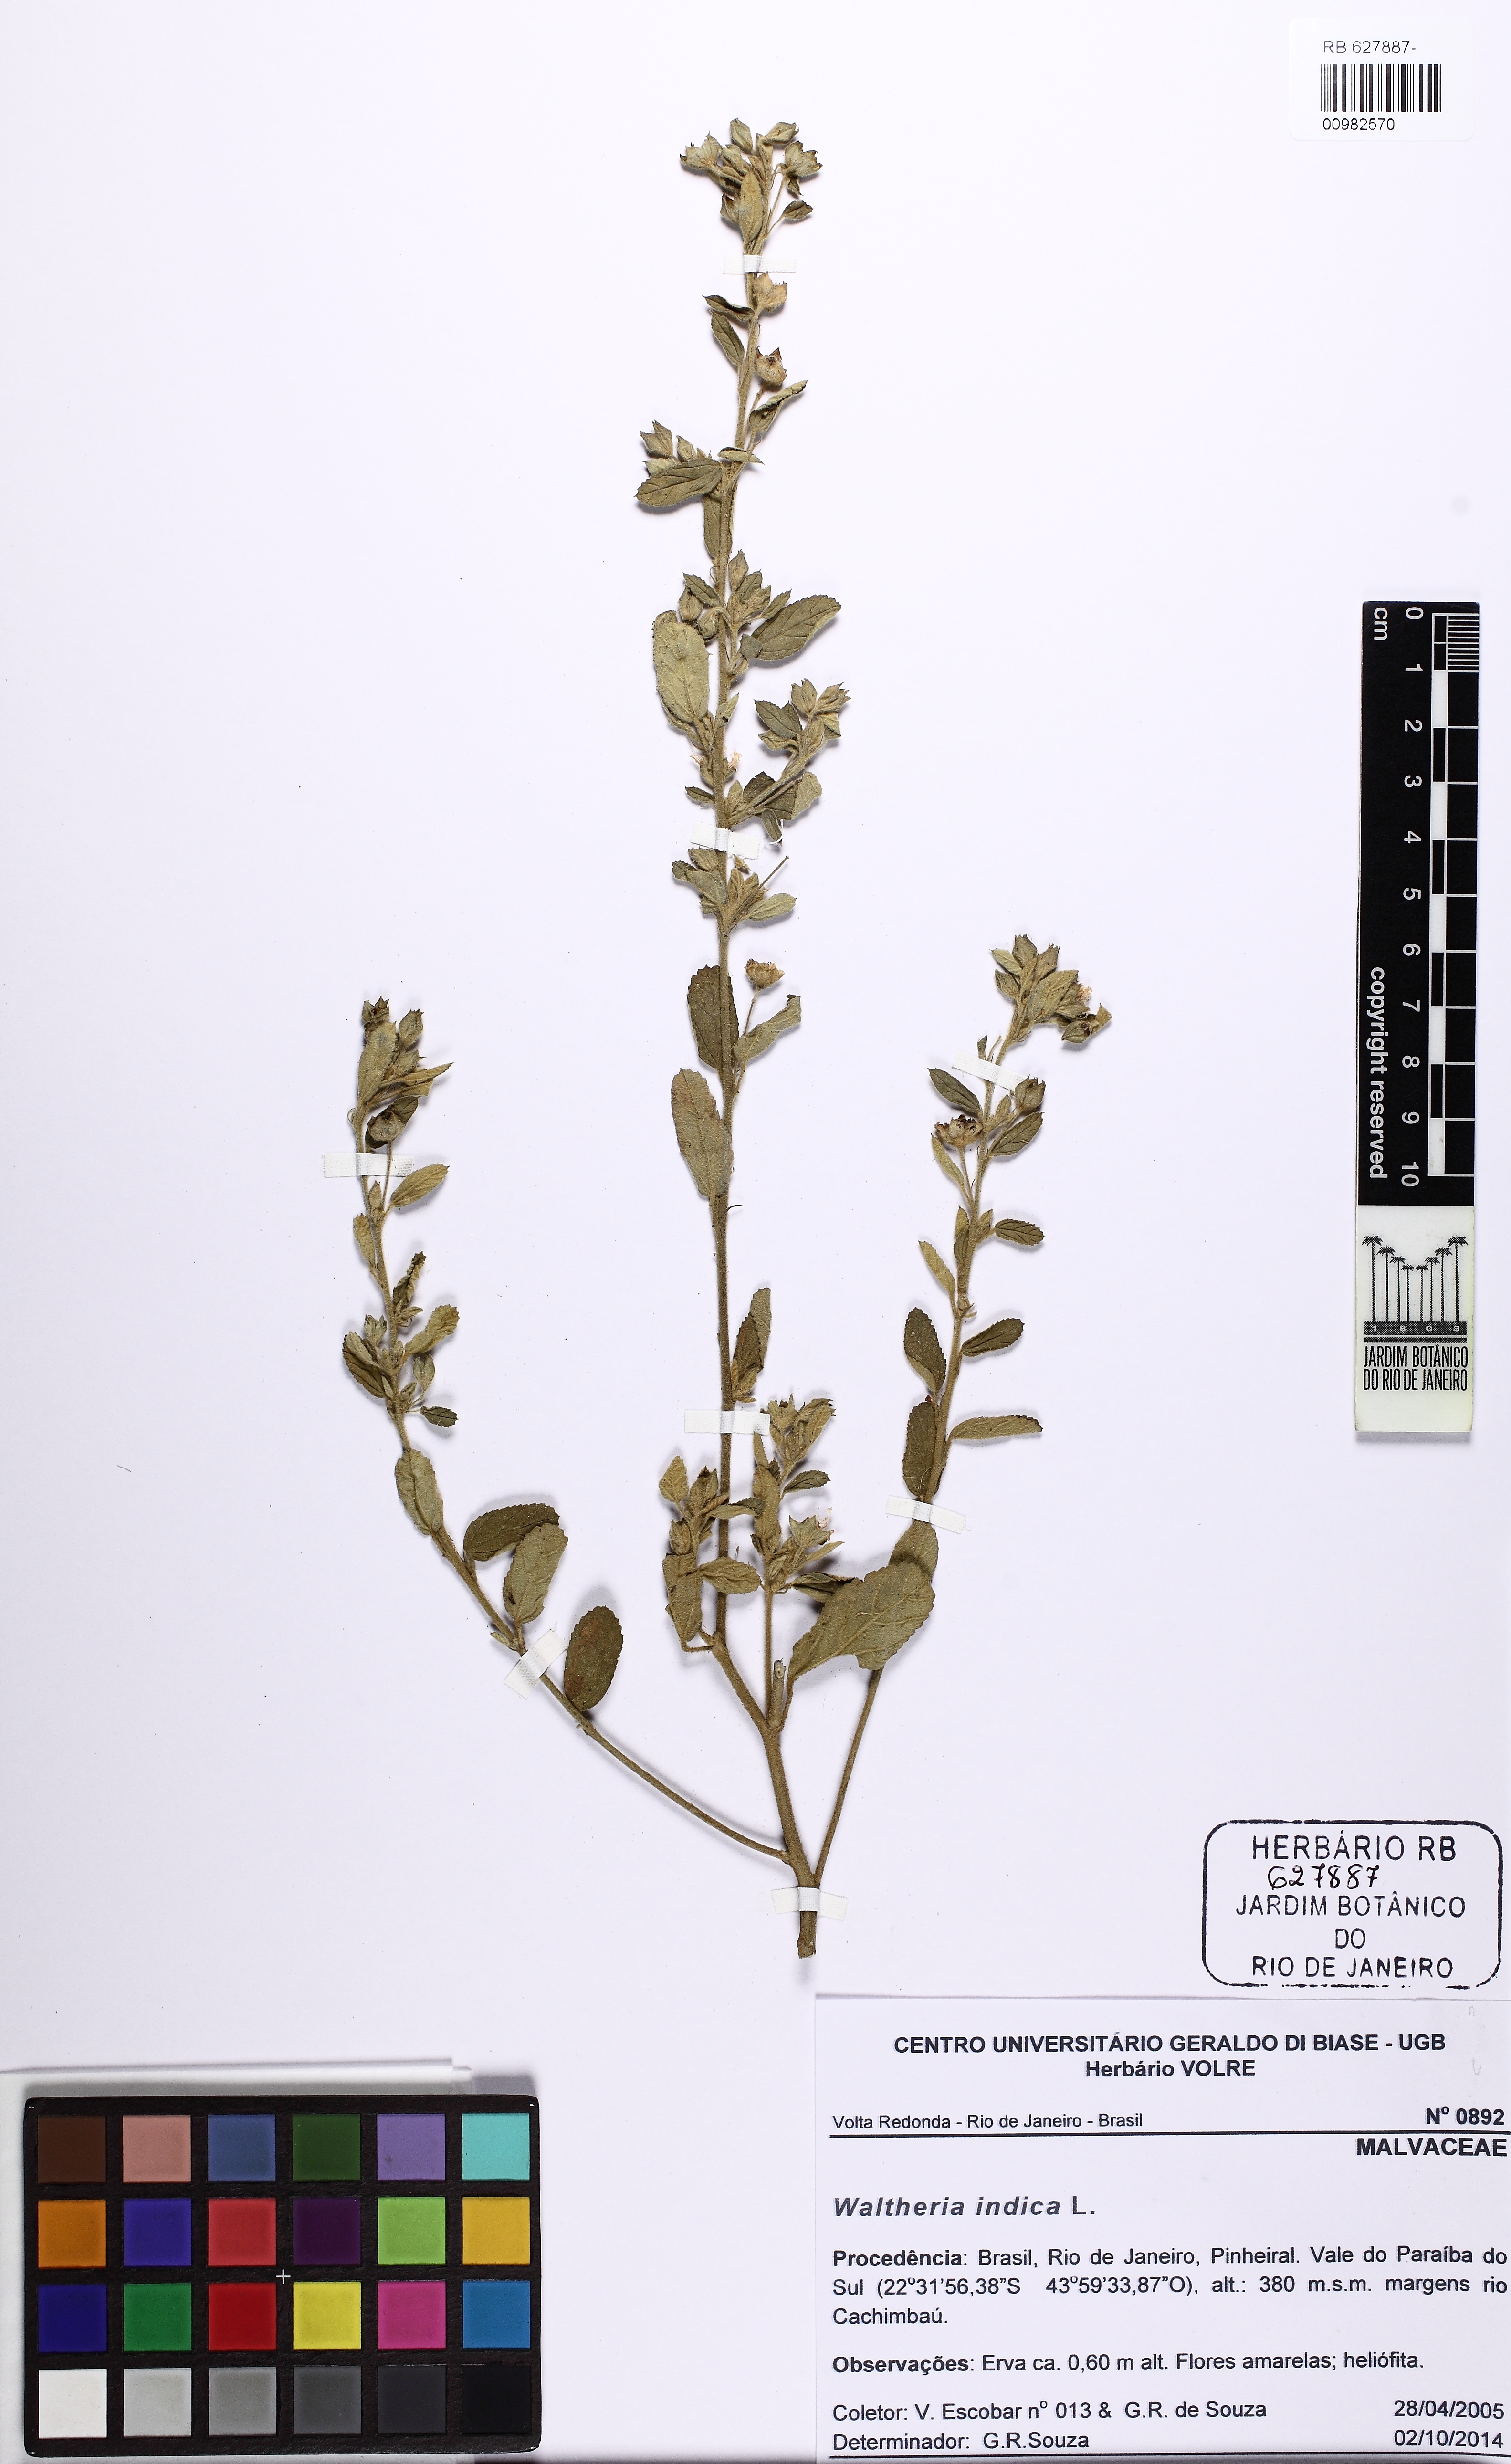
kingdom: Plantae
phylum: Tracheophyta
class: Magnoliopsida
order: Malvales
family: Malvaceae
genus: Sida
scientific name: Sida piraporana
